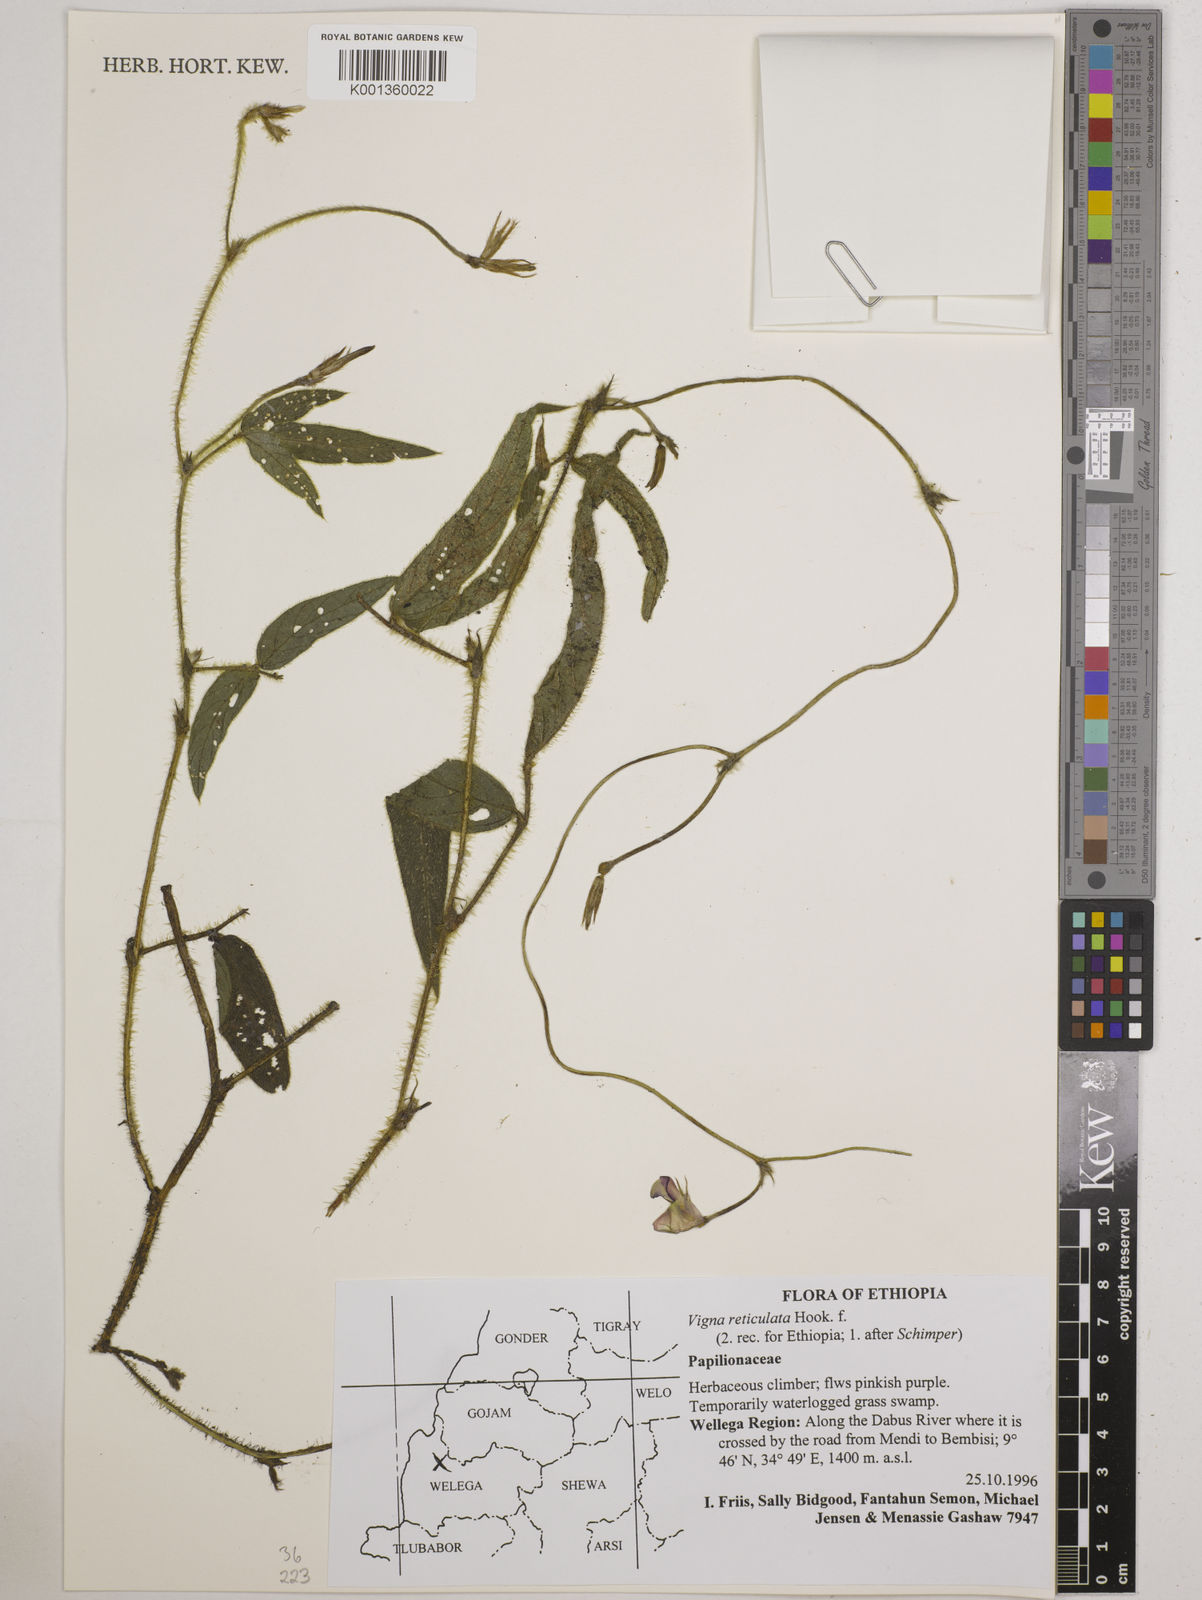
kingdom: Plantae
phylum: Tracheophyta
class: Magnoliopsida
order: Fabales
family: Fabaceae
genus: Vigna
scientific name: Vigna reticulata
